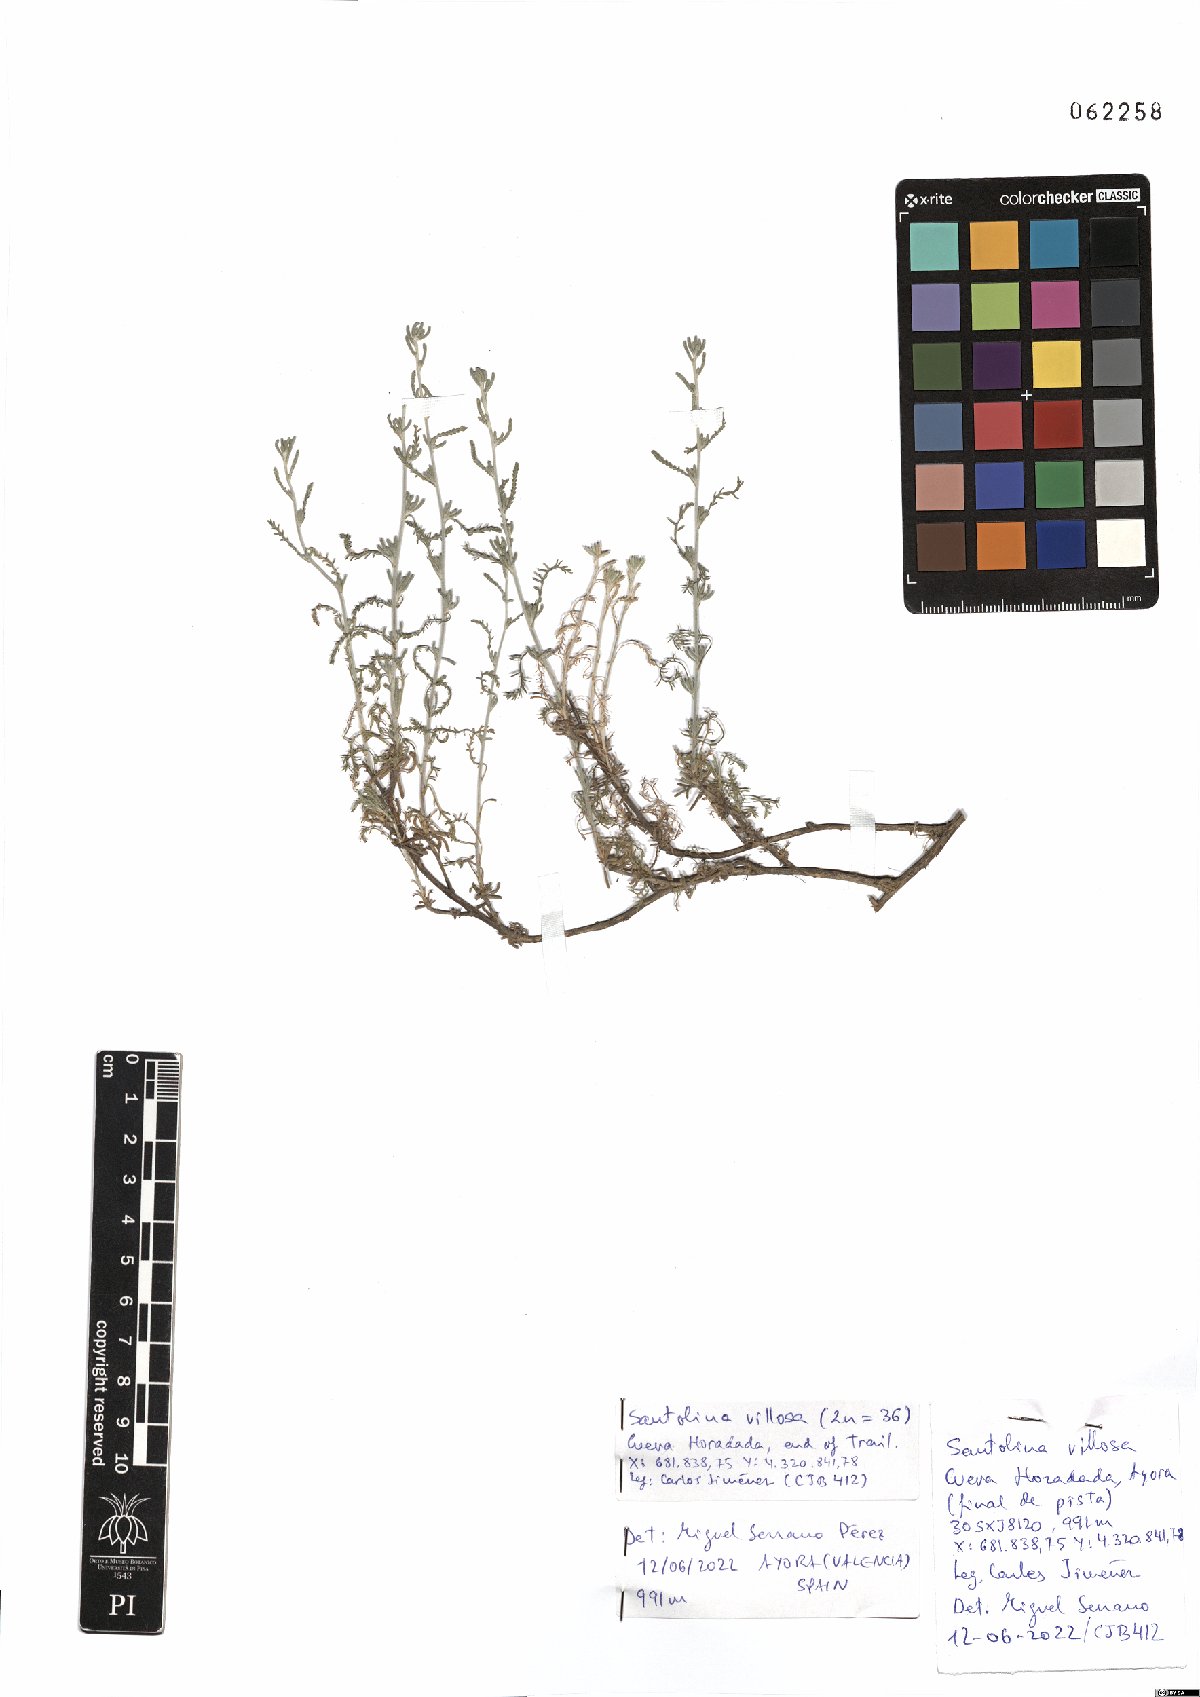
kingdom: Plantae
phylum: Tracheophyta
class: Magnoliopsida
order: Asterales
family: Asteraceae
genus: Santolina
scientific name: Santolina chamaecyparissus
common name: Lavender-cotton
